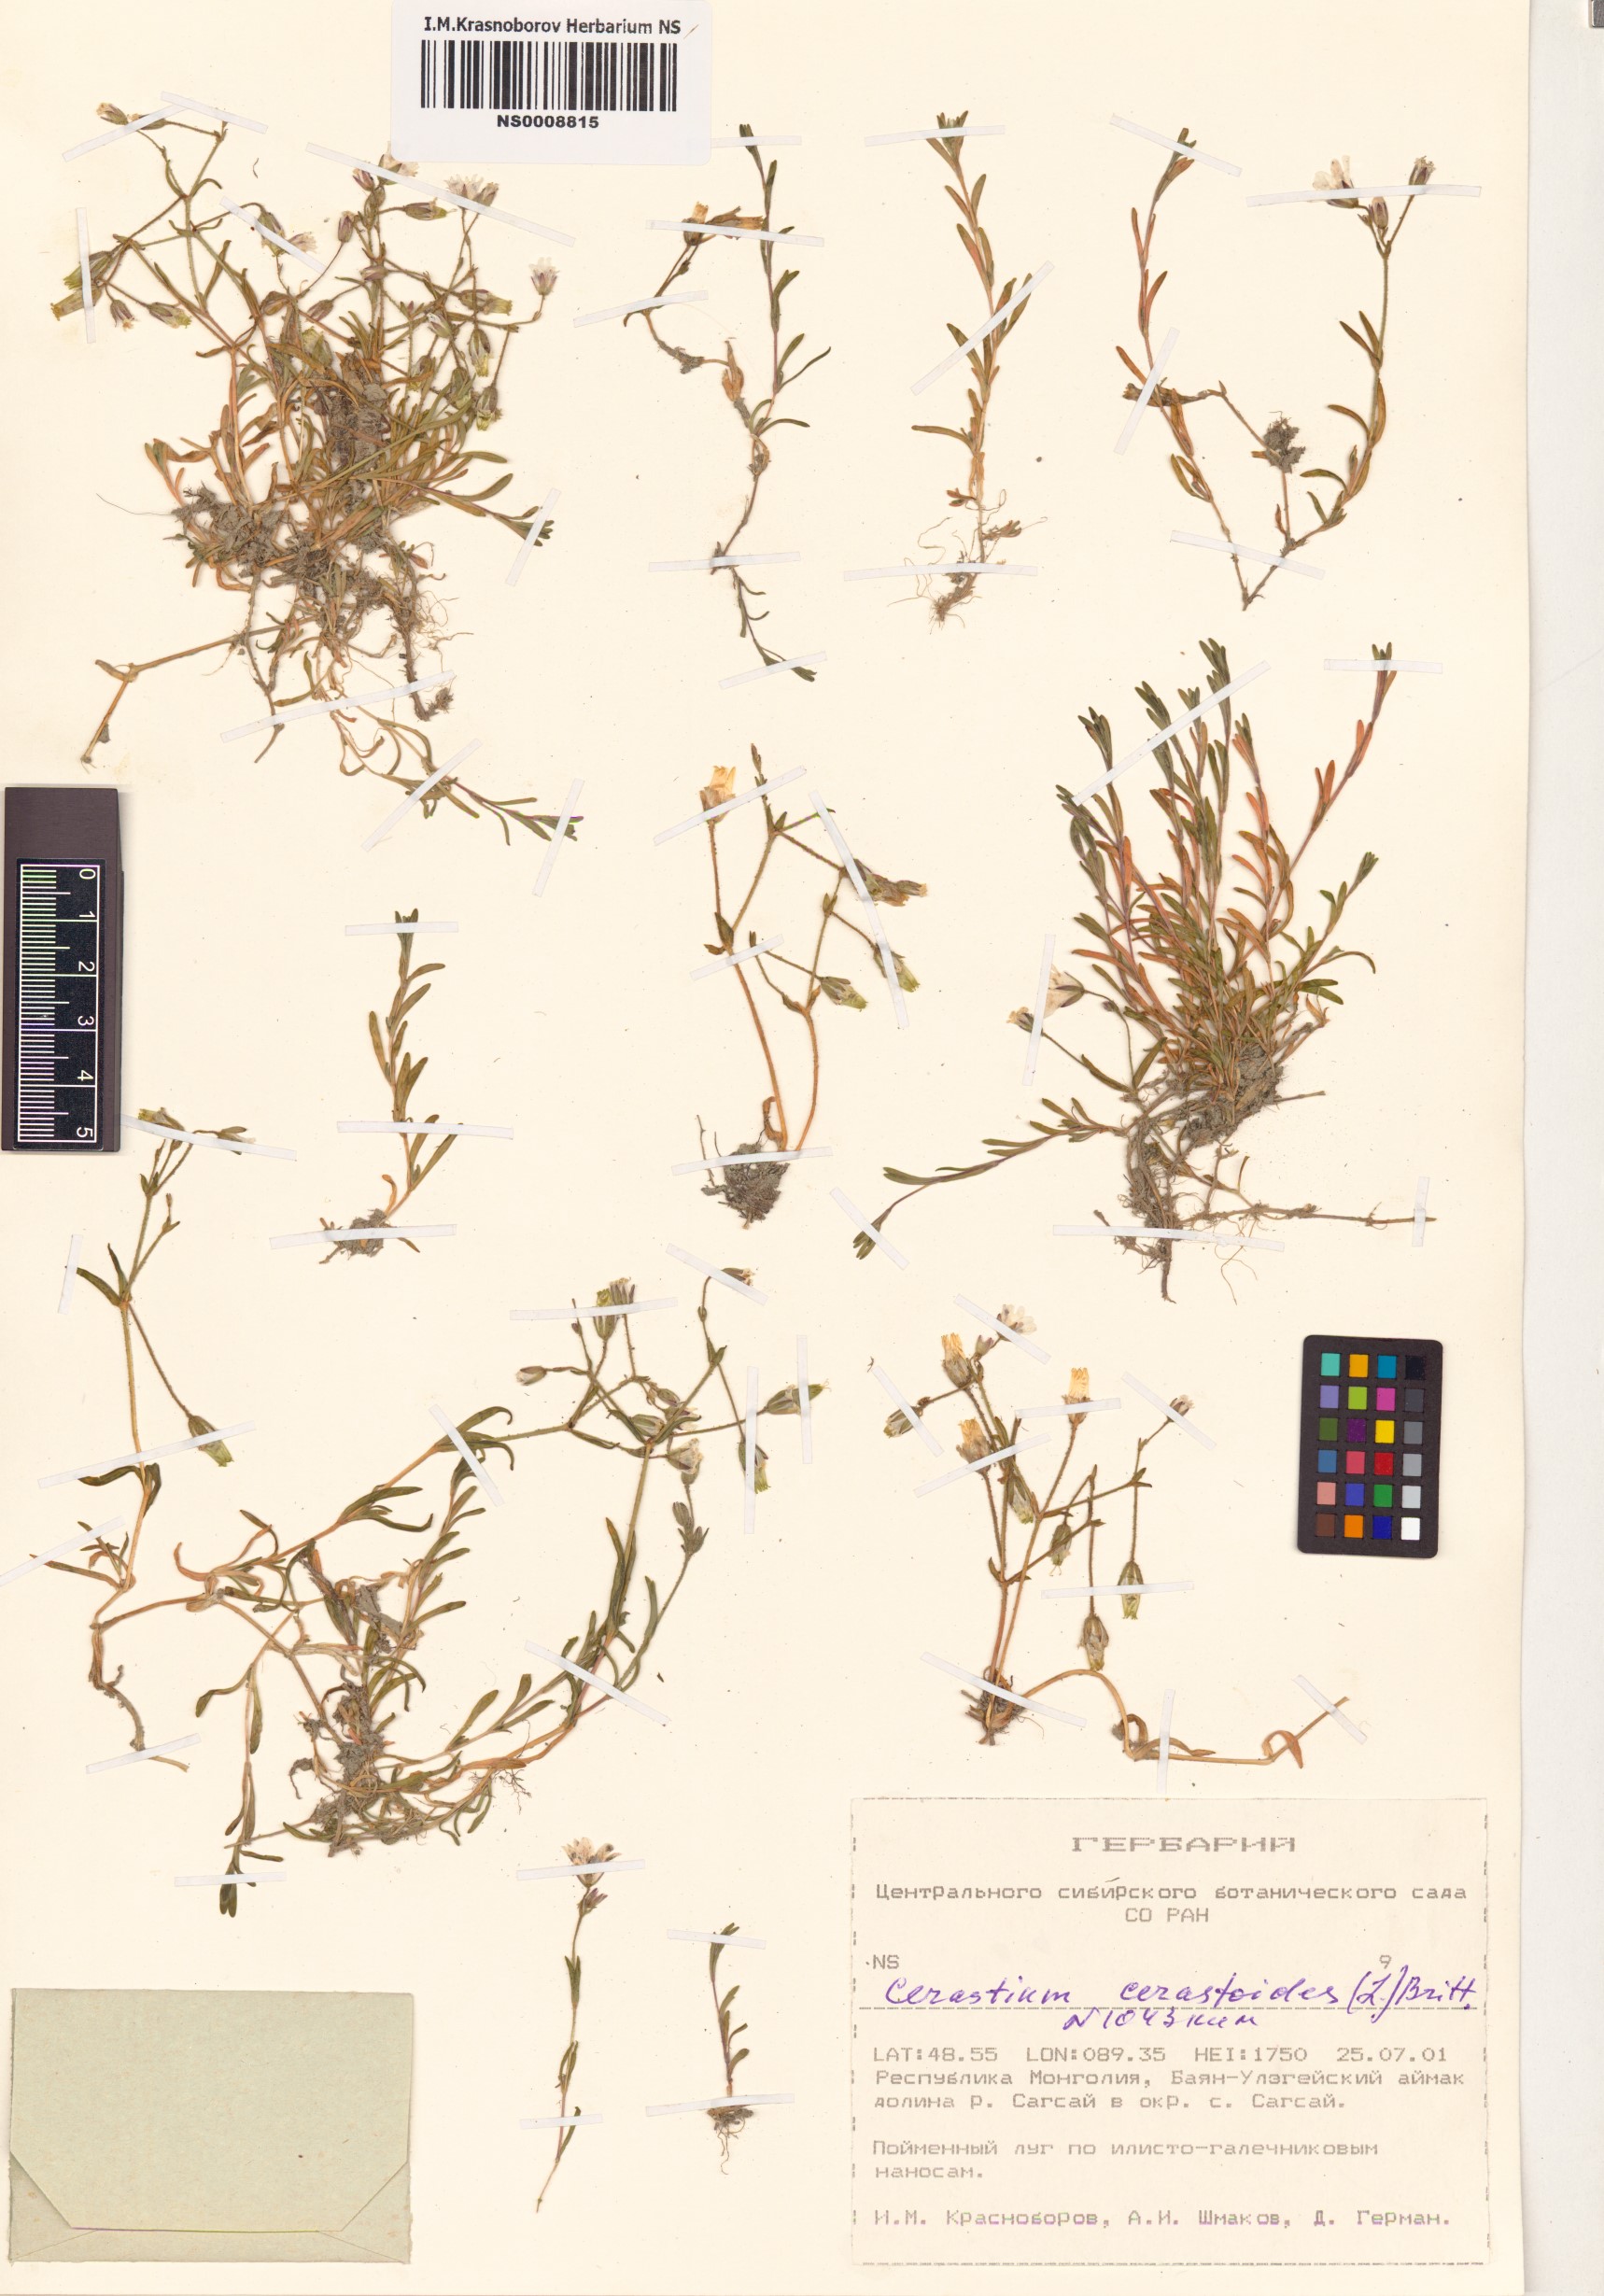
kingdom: Plantae
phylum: Tracheophyta
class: Magnoliopsida
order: Caryophyllales
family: Caryophyllaceae
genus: Dichodon
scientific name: Dichodon cerastoides
